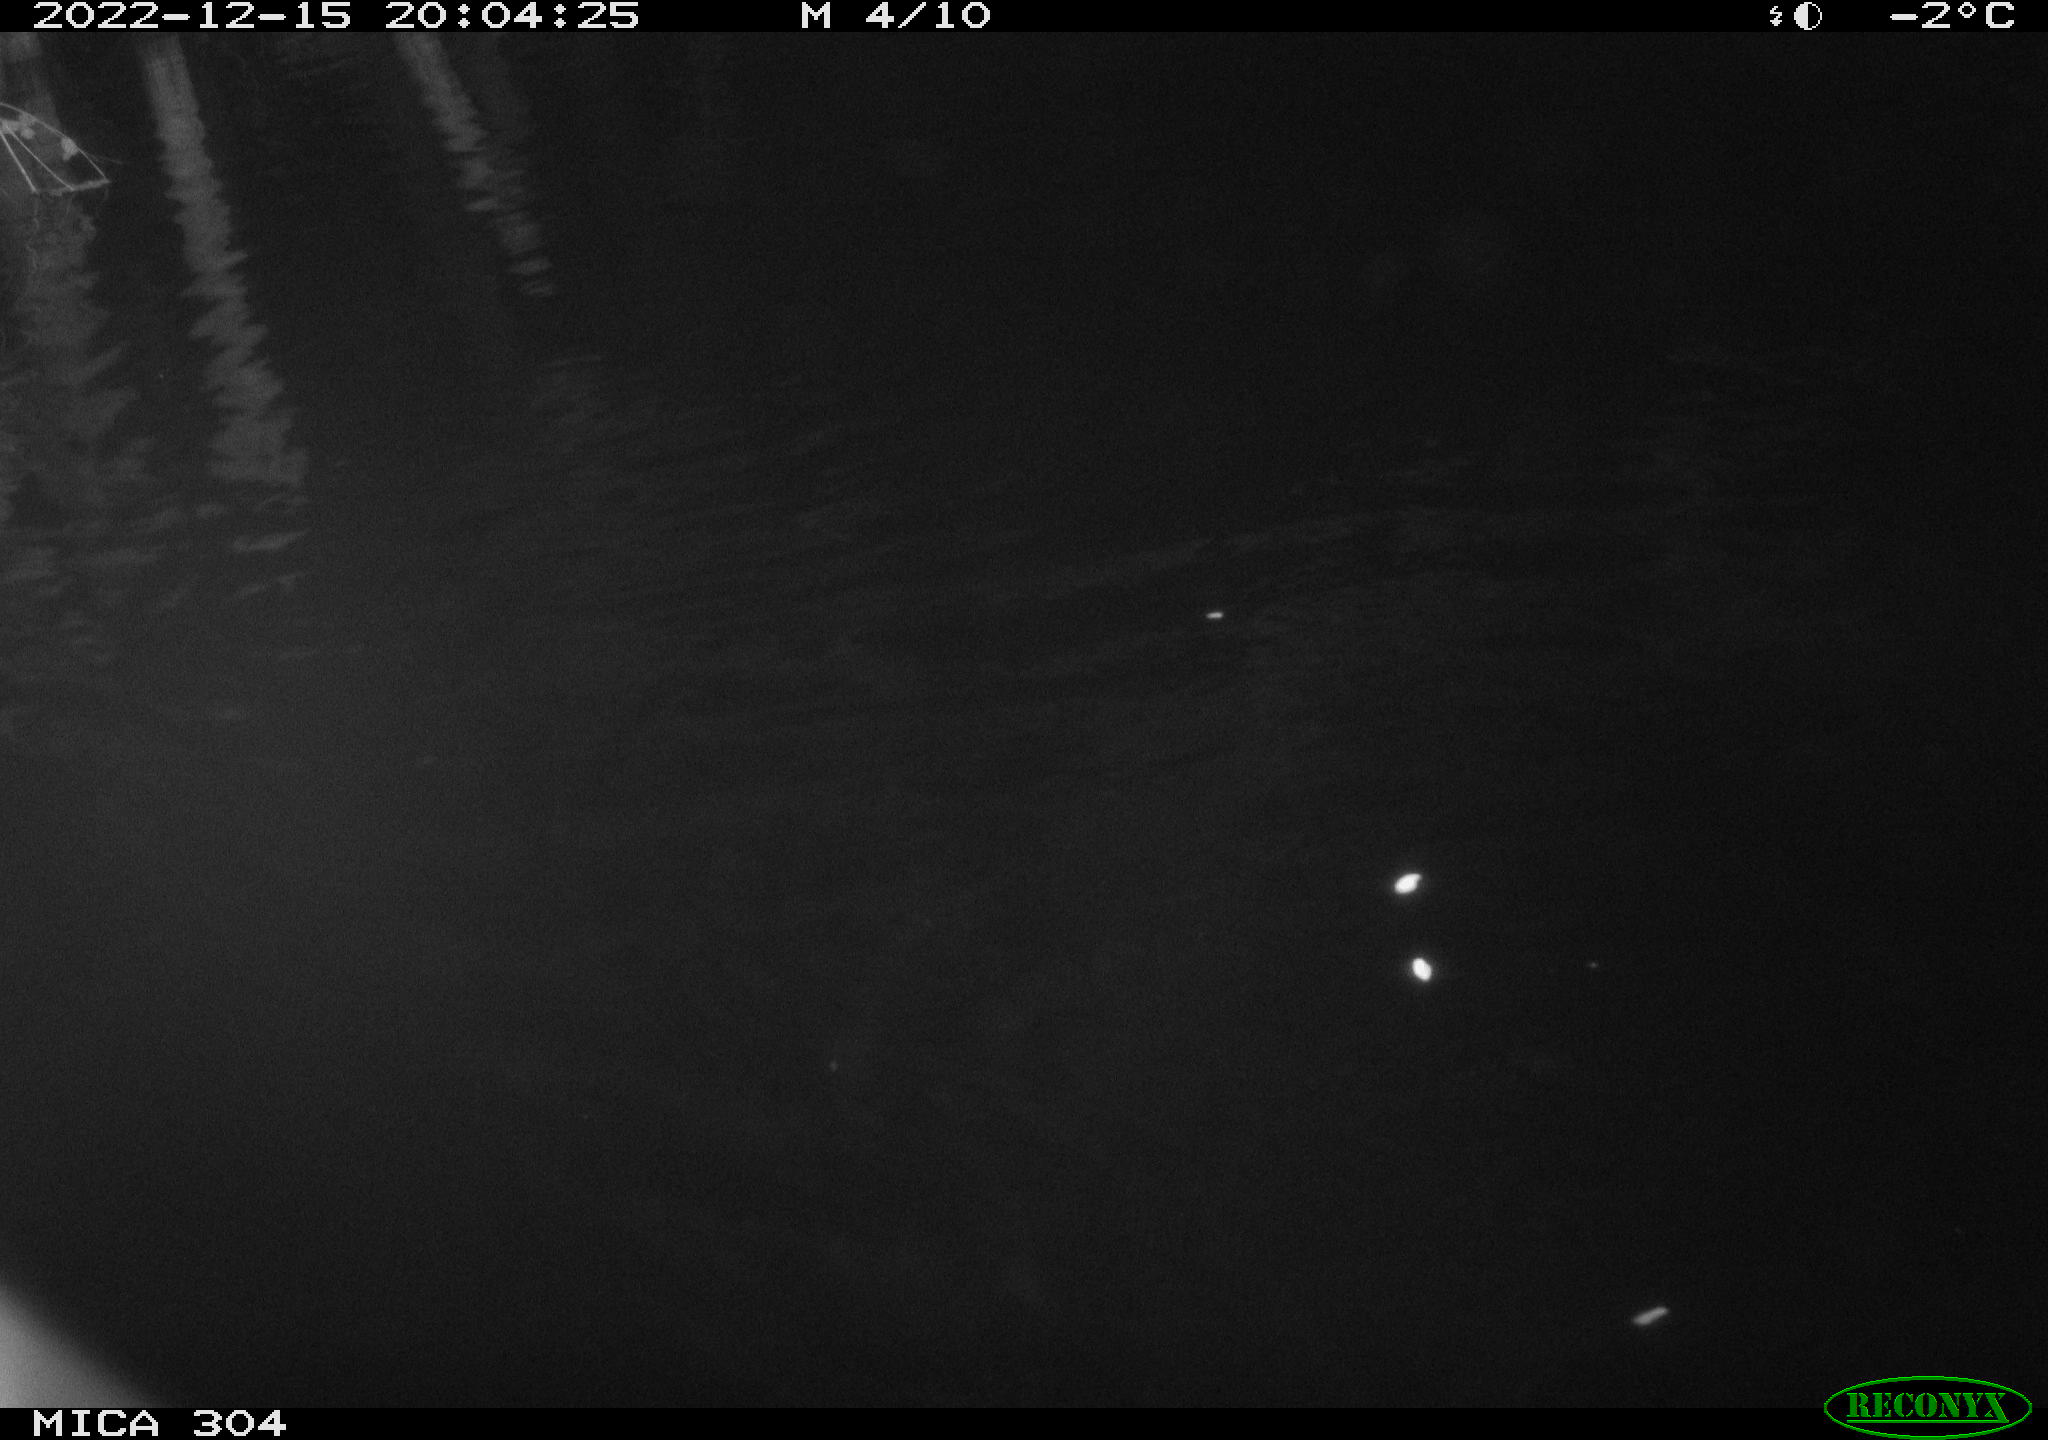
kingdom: Animalia
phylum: Chordata
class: Mammalia
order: Rodentia
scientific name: Rodentia
